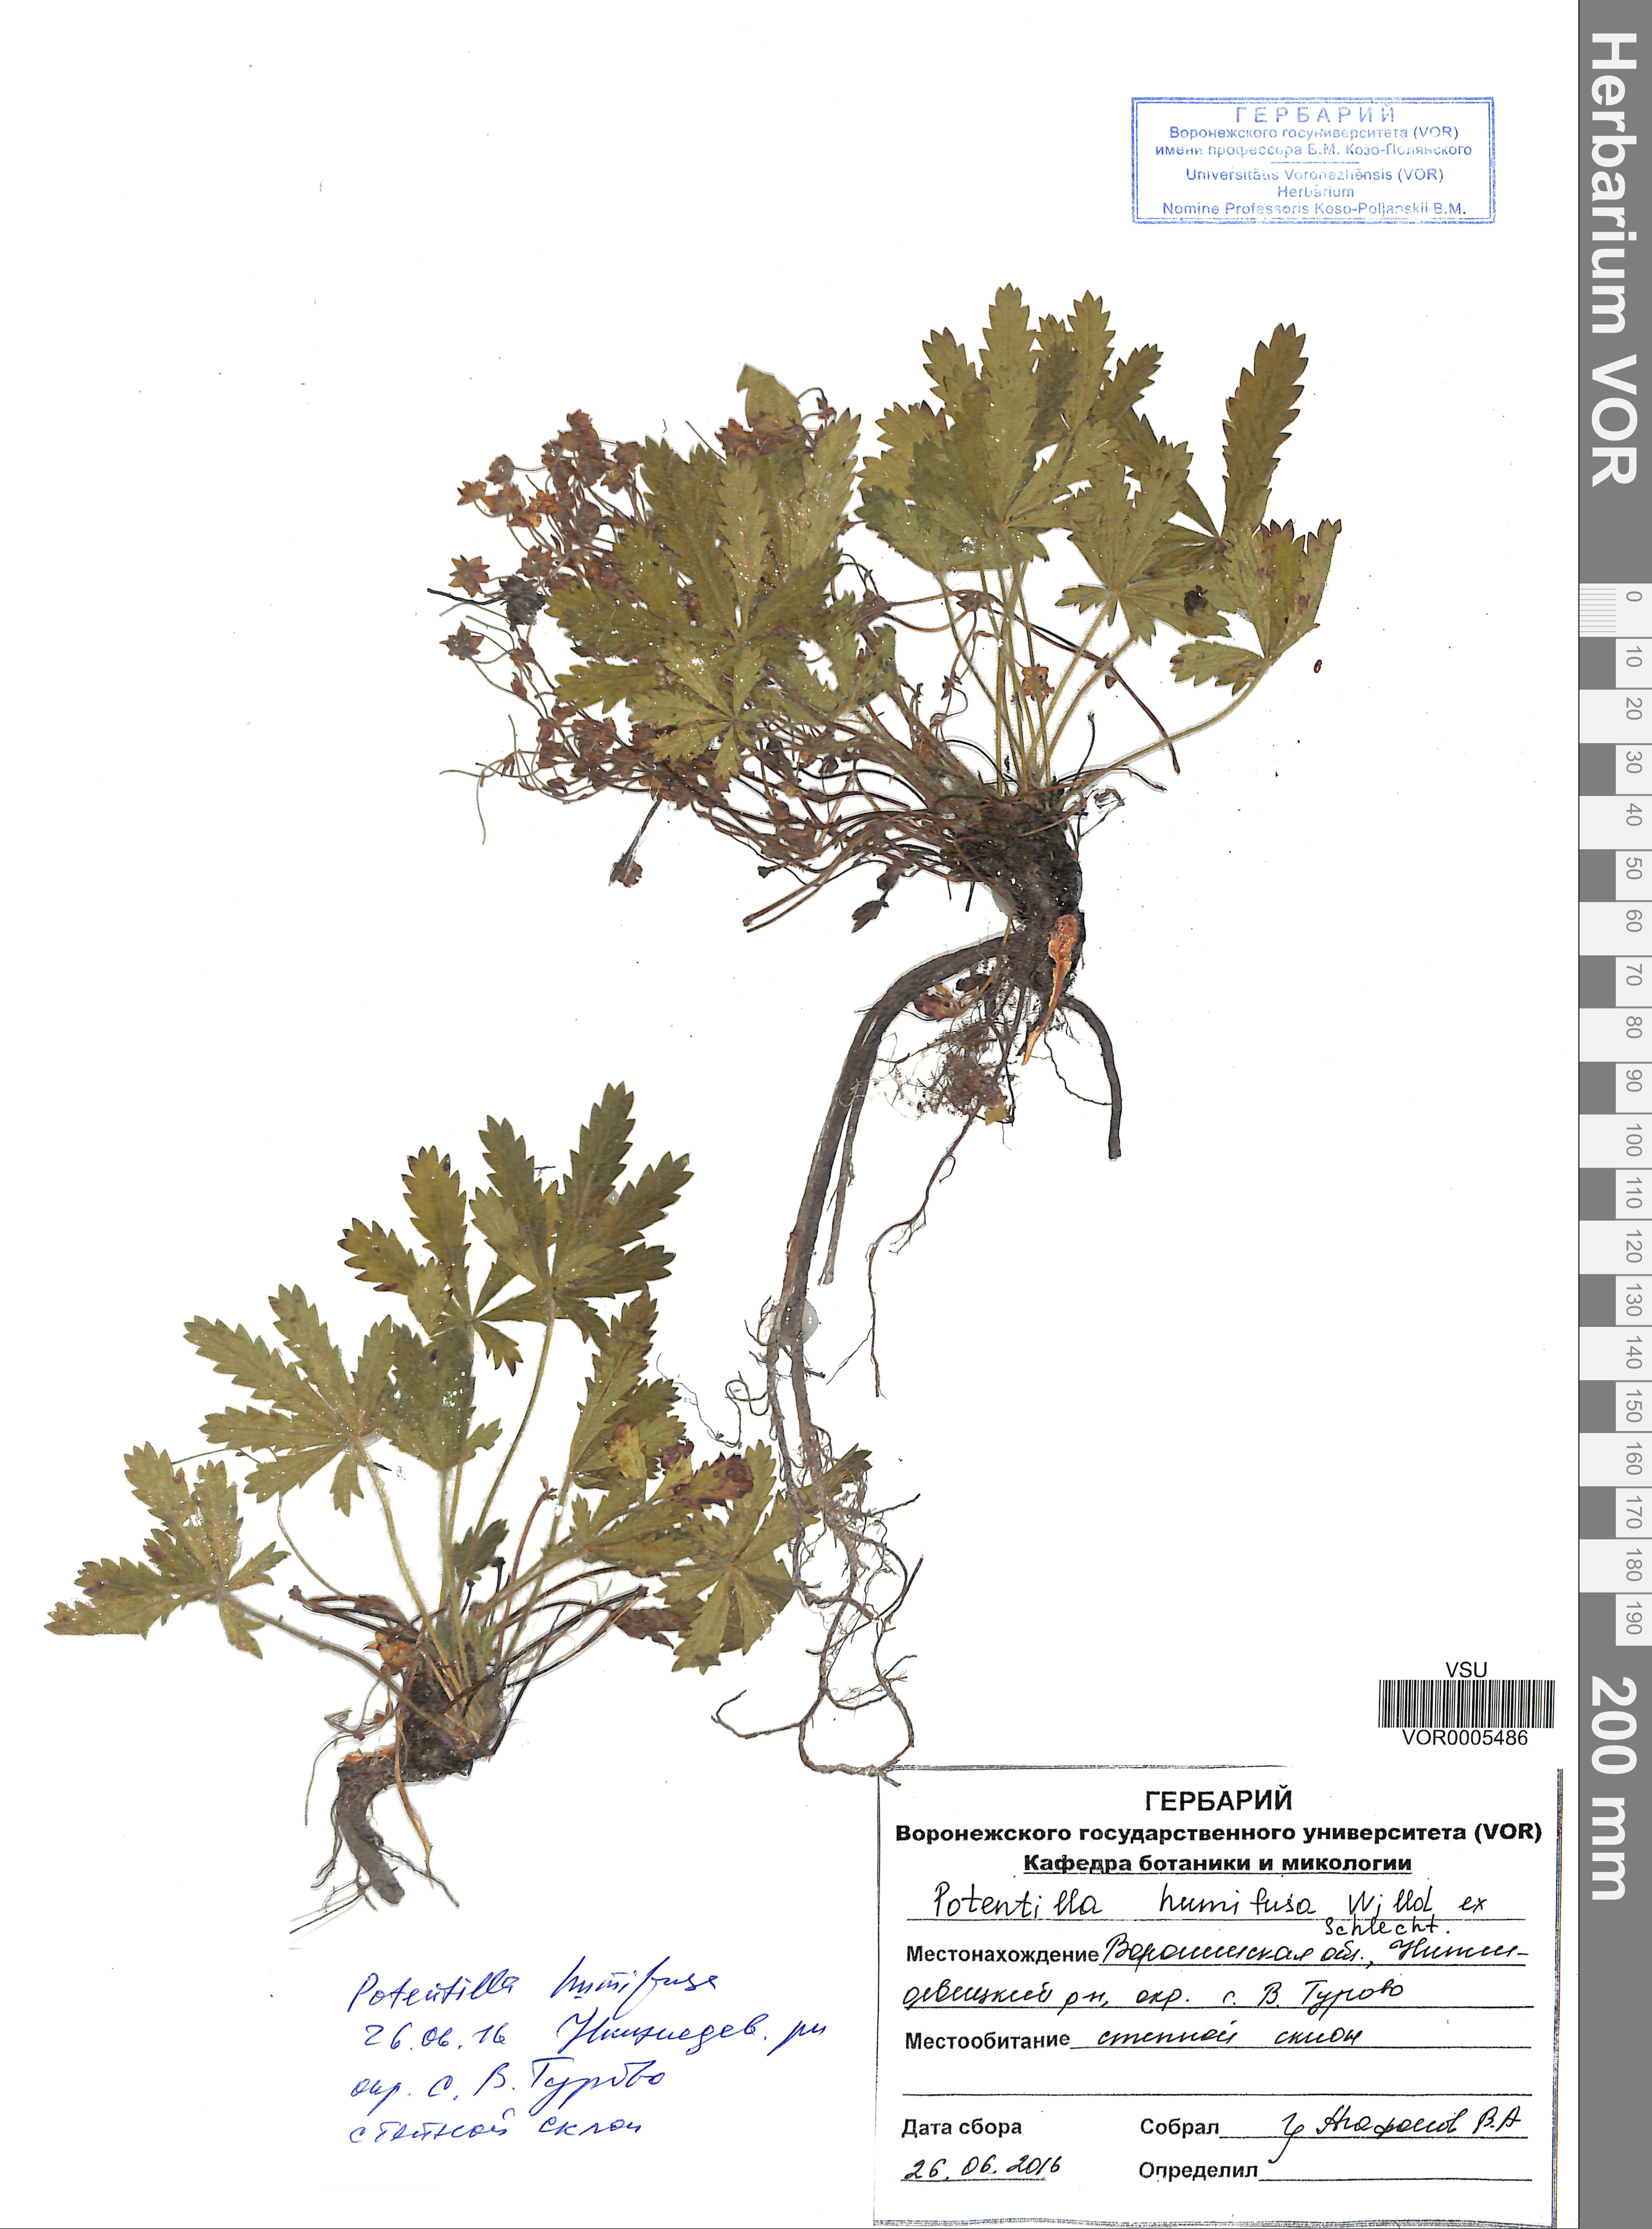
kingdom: Plantae
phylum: Tracheophyta
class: Magnoliopsida
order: Rosales
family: Rosaceae
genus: Potentilla
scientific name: Potentilla humifusa
